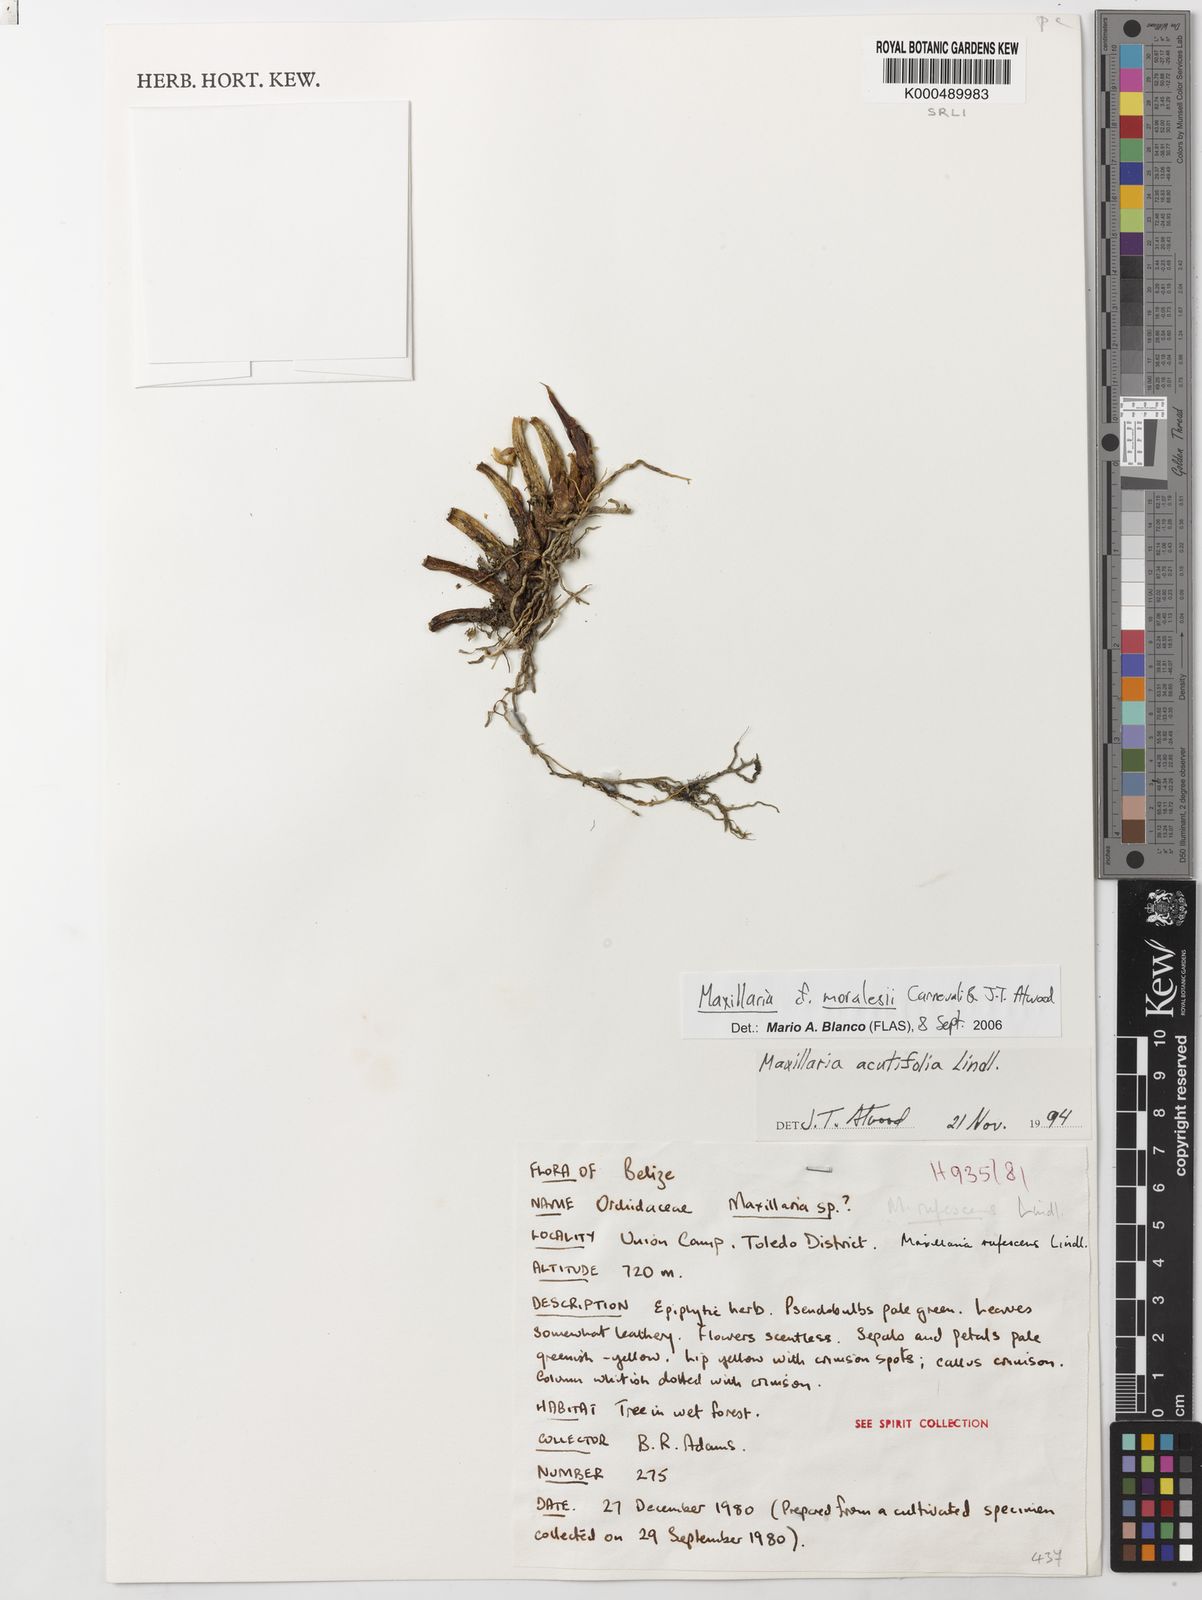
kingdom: Plantae
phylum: Tracheophyta
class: Liliopsida
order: Asparagales
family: Orchidaceae
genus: Maxillaria
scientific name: Maxillaria acutifolia
